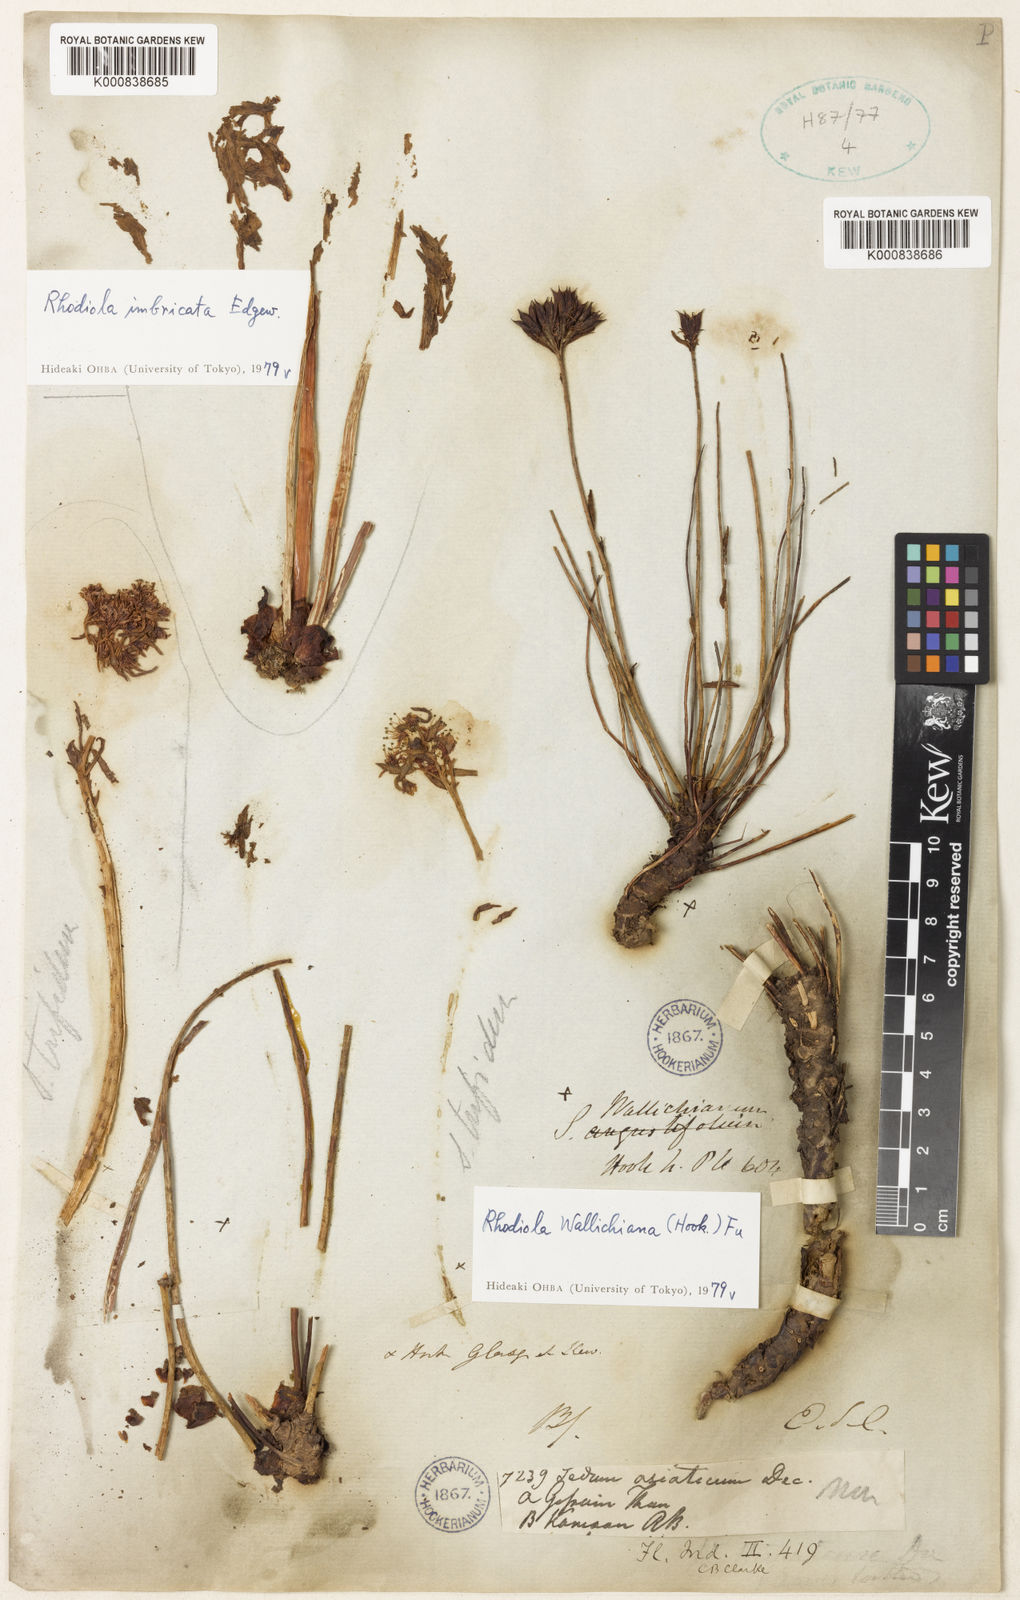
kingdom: Plantae
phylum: Tracheophyta
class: Magnoliopsida
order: Saxifragales
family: Crassulaceae
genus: Rhodiola
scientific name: Rhodiola wallichiana
